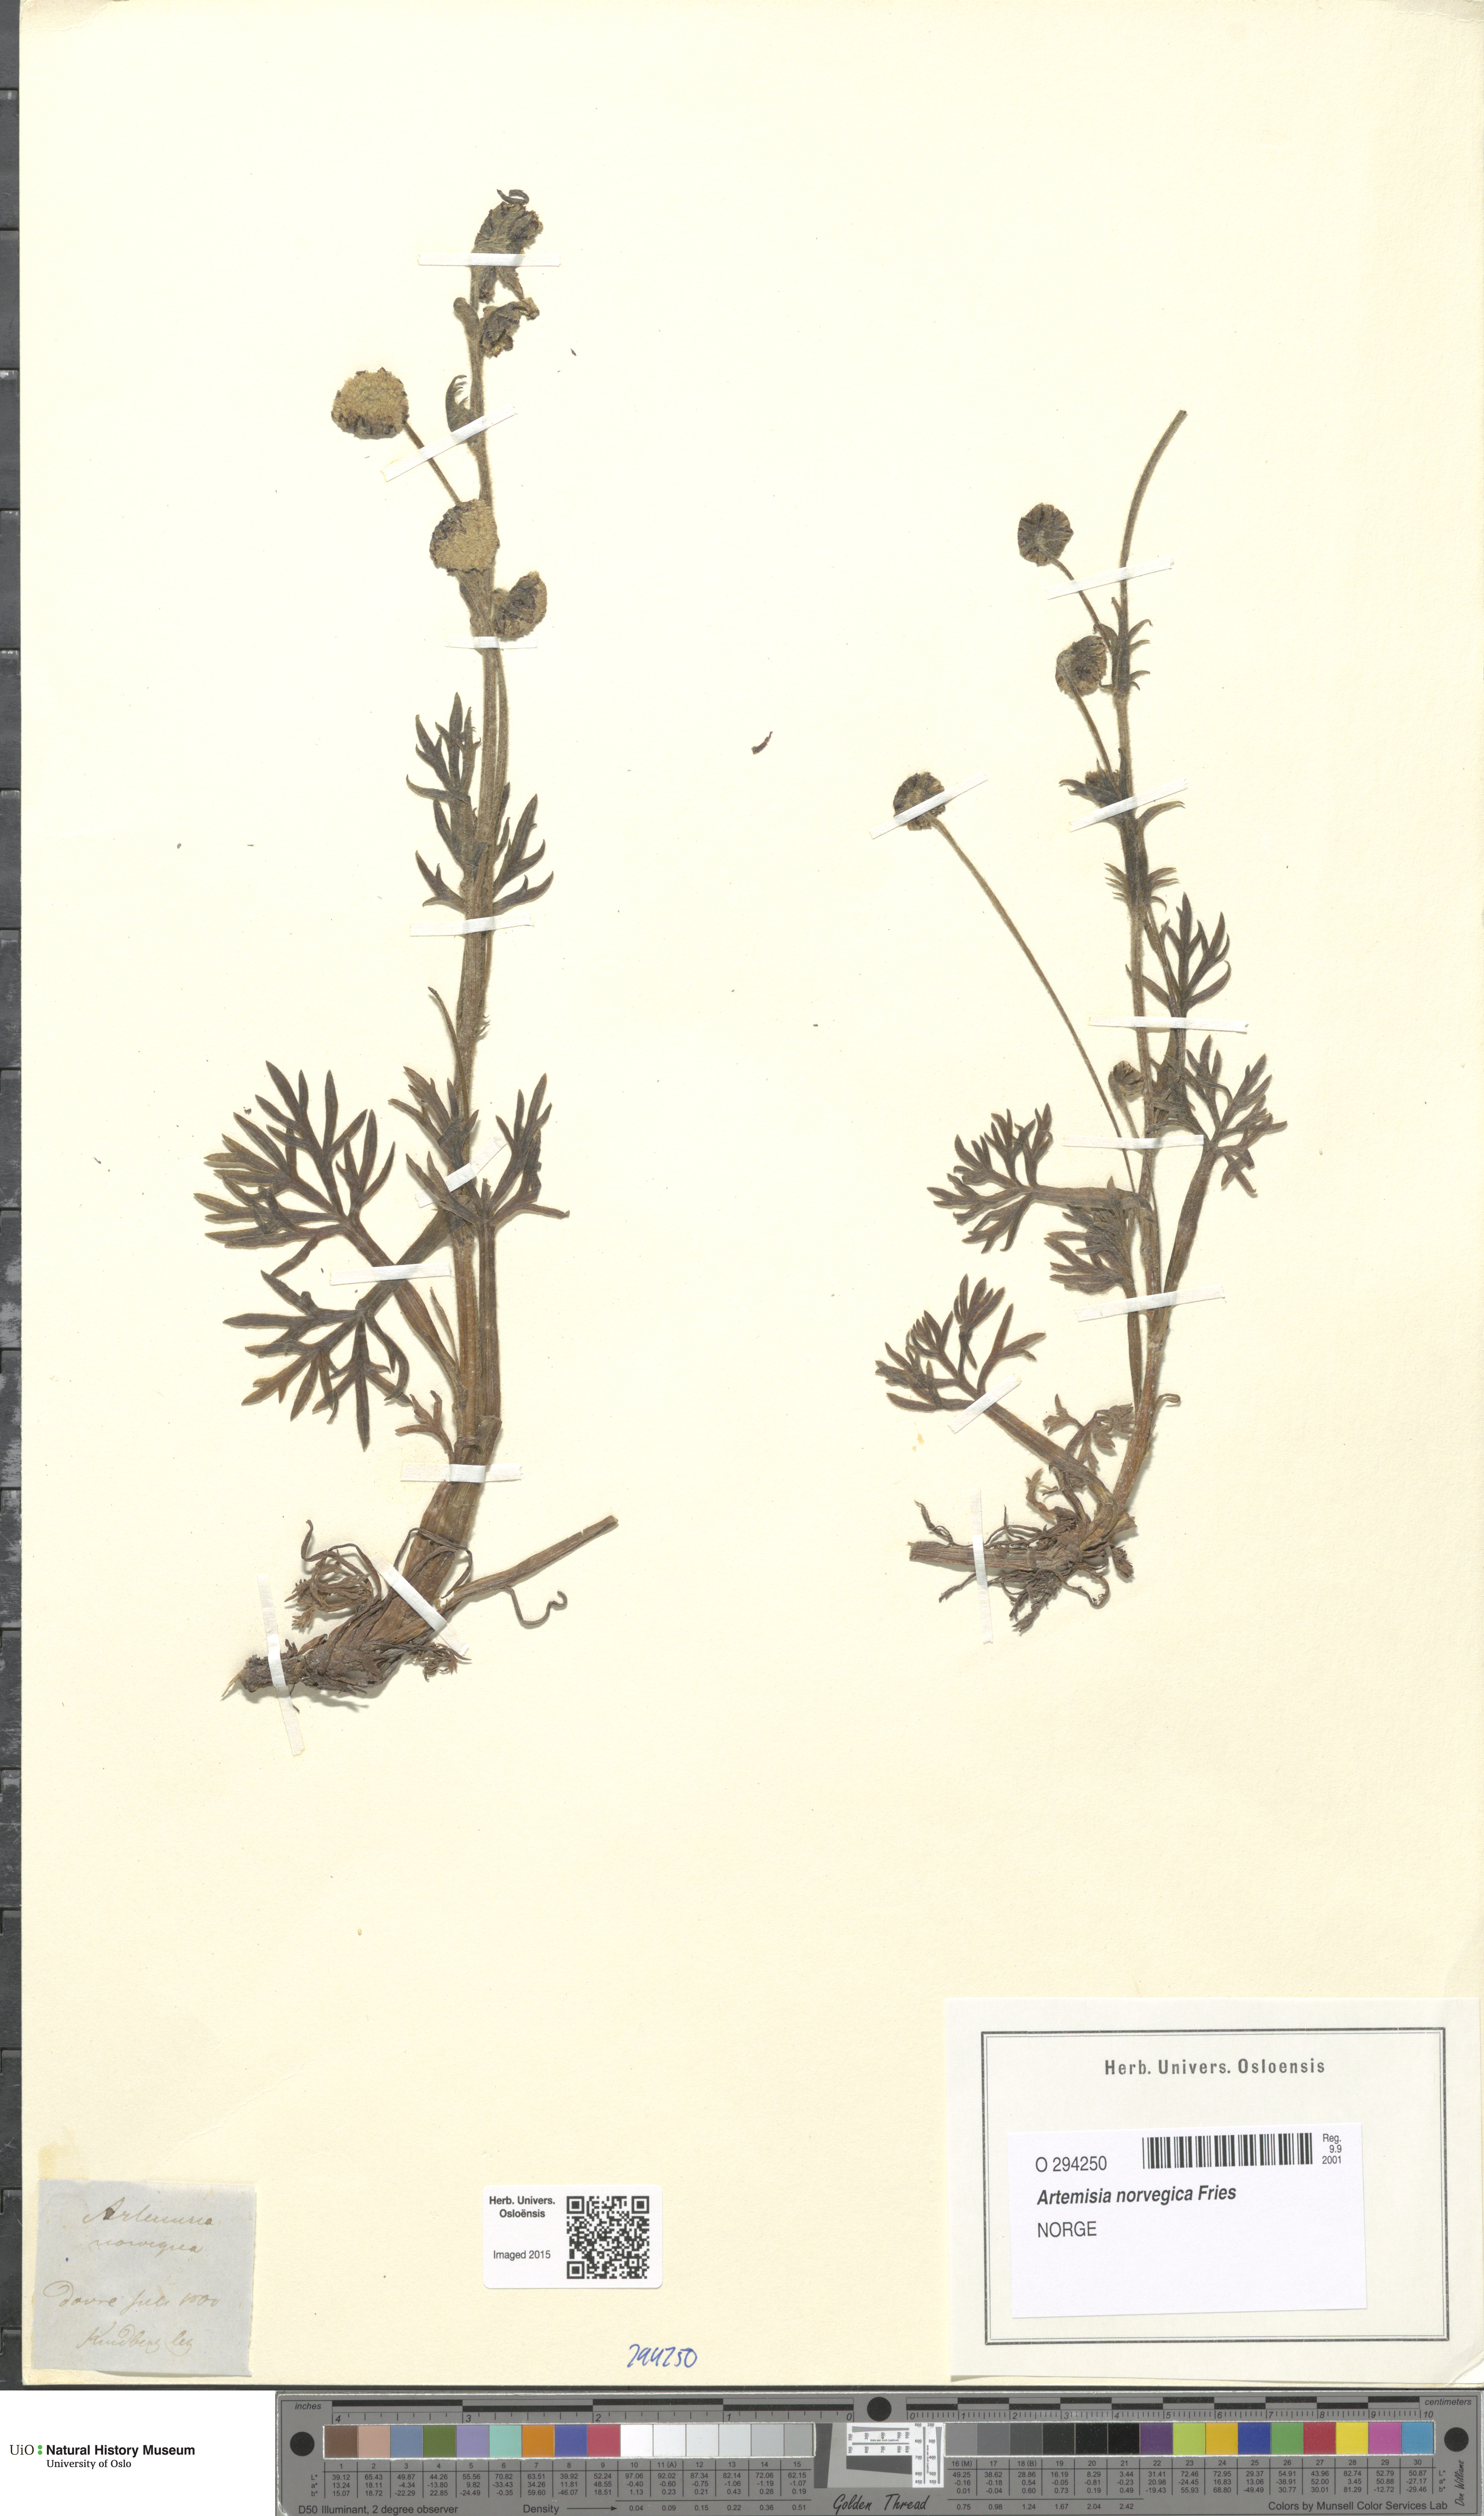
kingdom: Plantae
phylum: Tracheophyta
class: Magnoliopsida
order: Asterales
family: Asteraceae
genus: Artemisia
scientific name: Artemisia norvegica
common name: Norwegian mugwort
